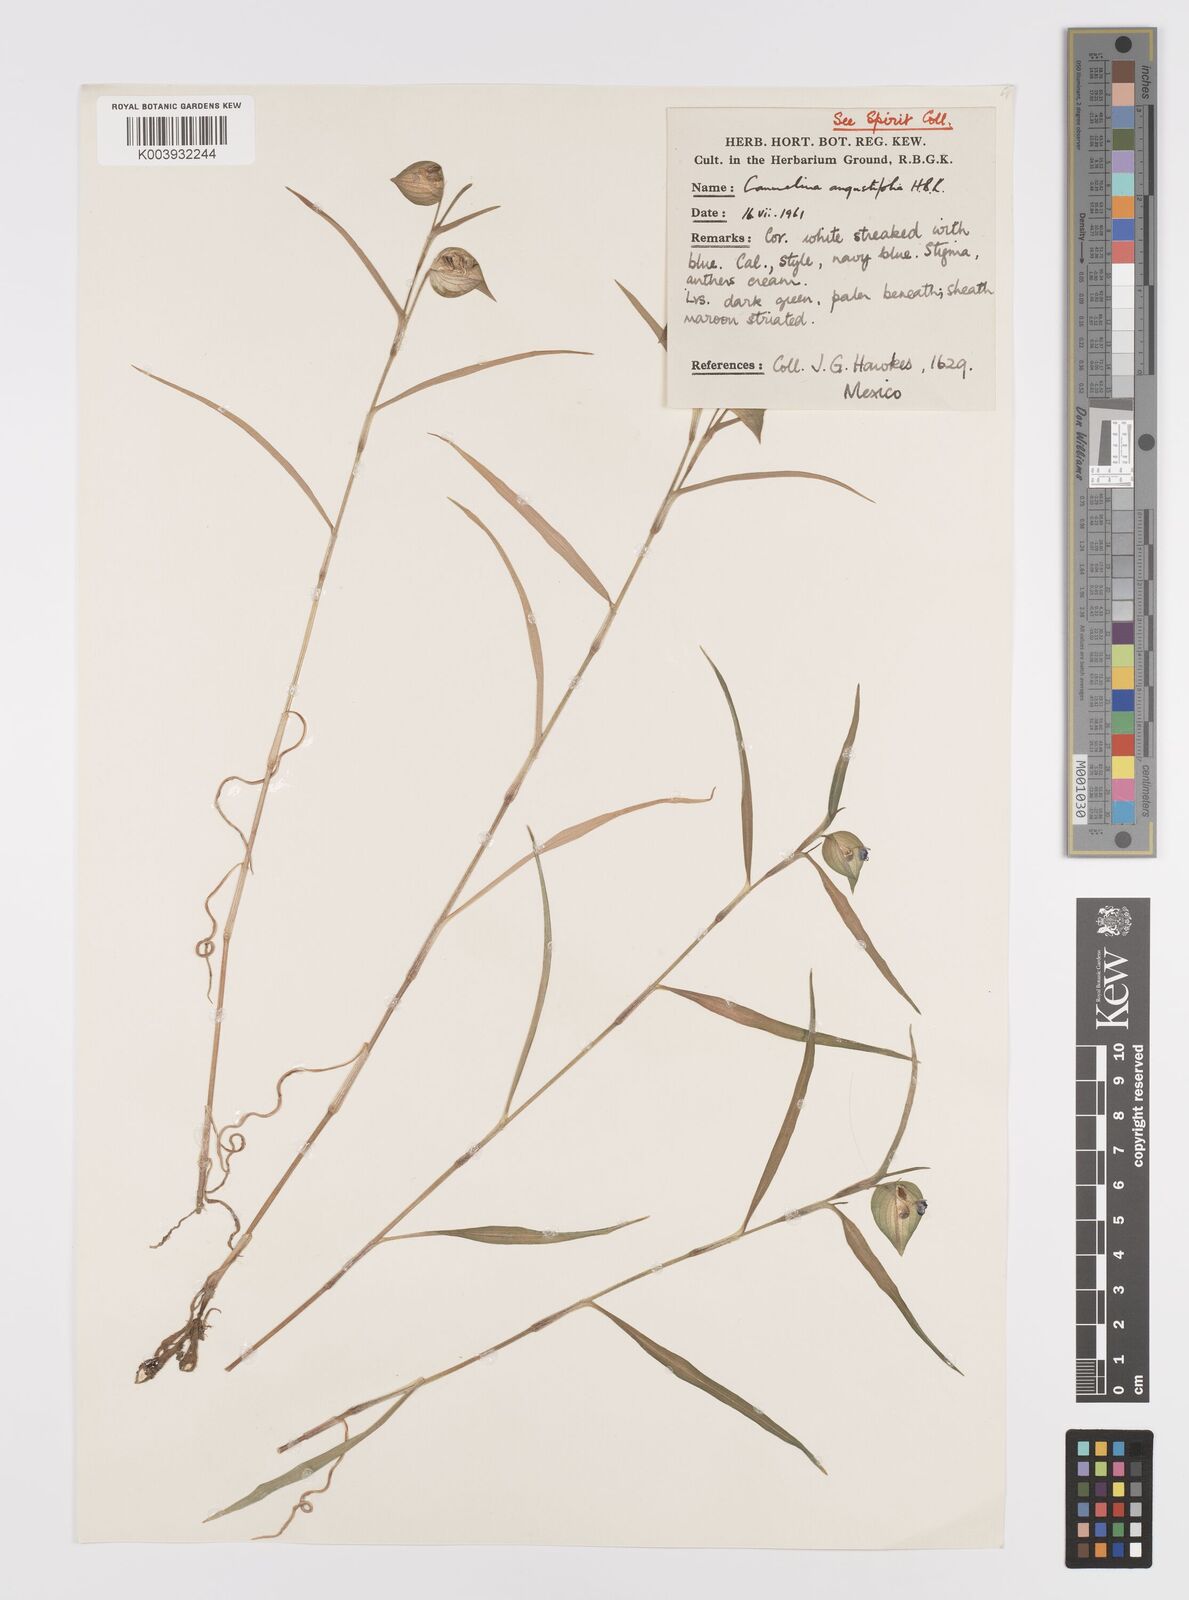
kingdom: Plantae
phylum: Tracheophyta
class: Liliopsida
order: Commelinales
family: Commelinaceae
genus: Commelina
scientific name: Commelina erecta
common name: Blousel blommetjie
